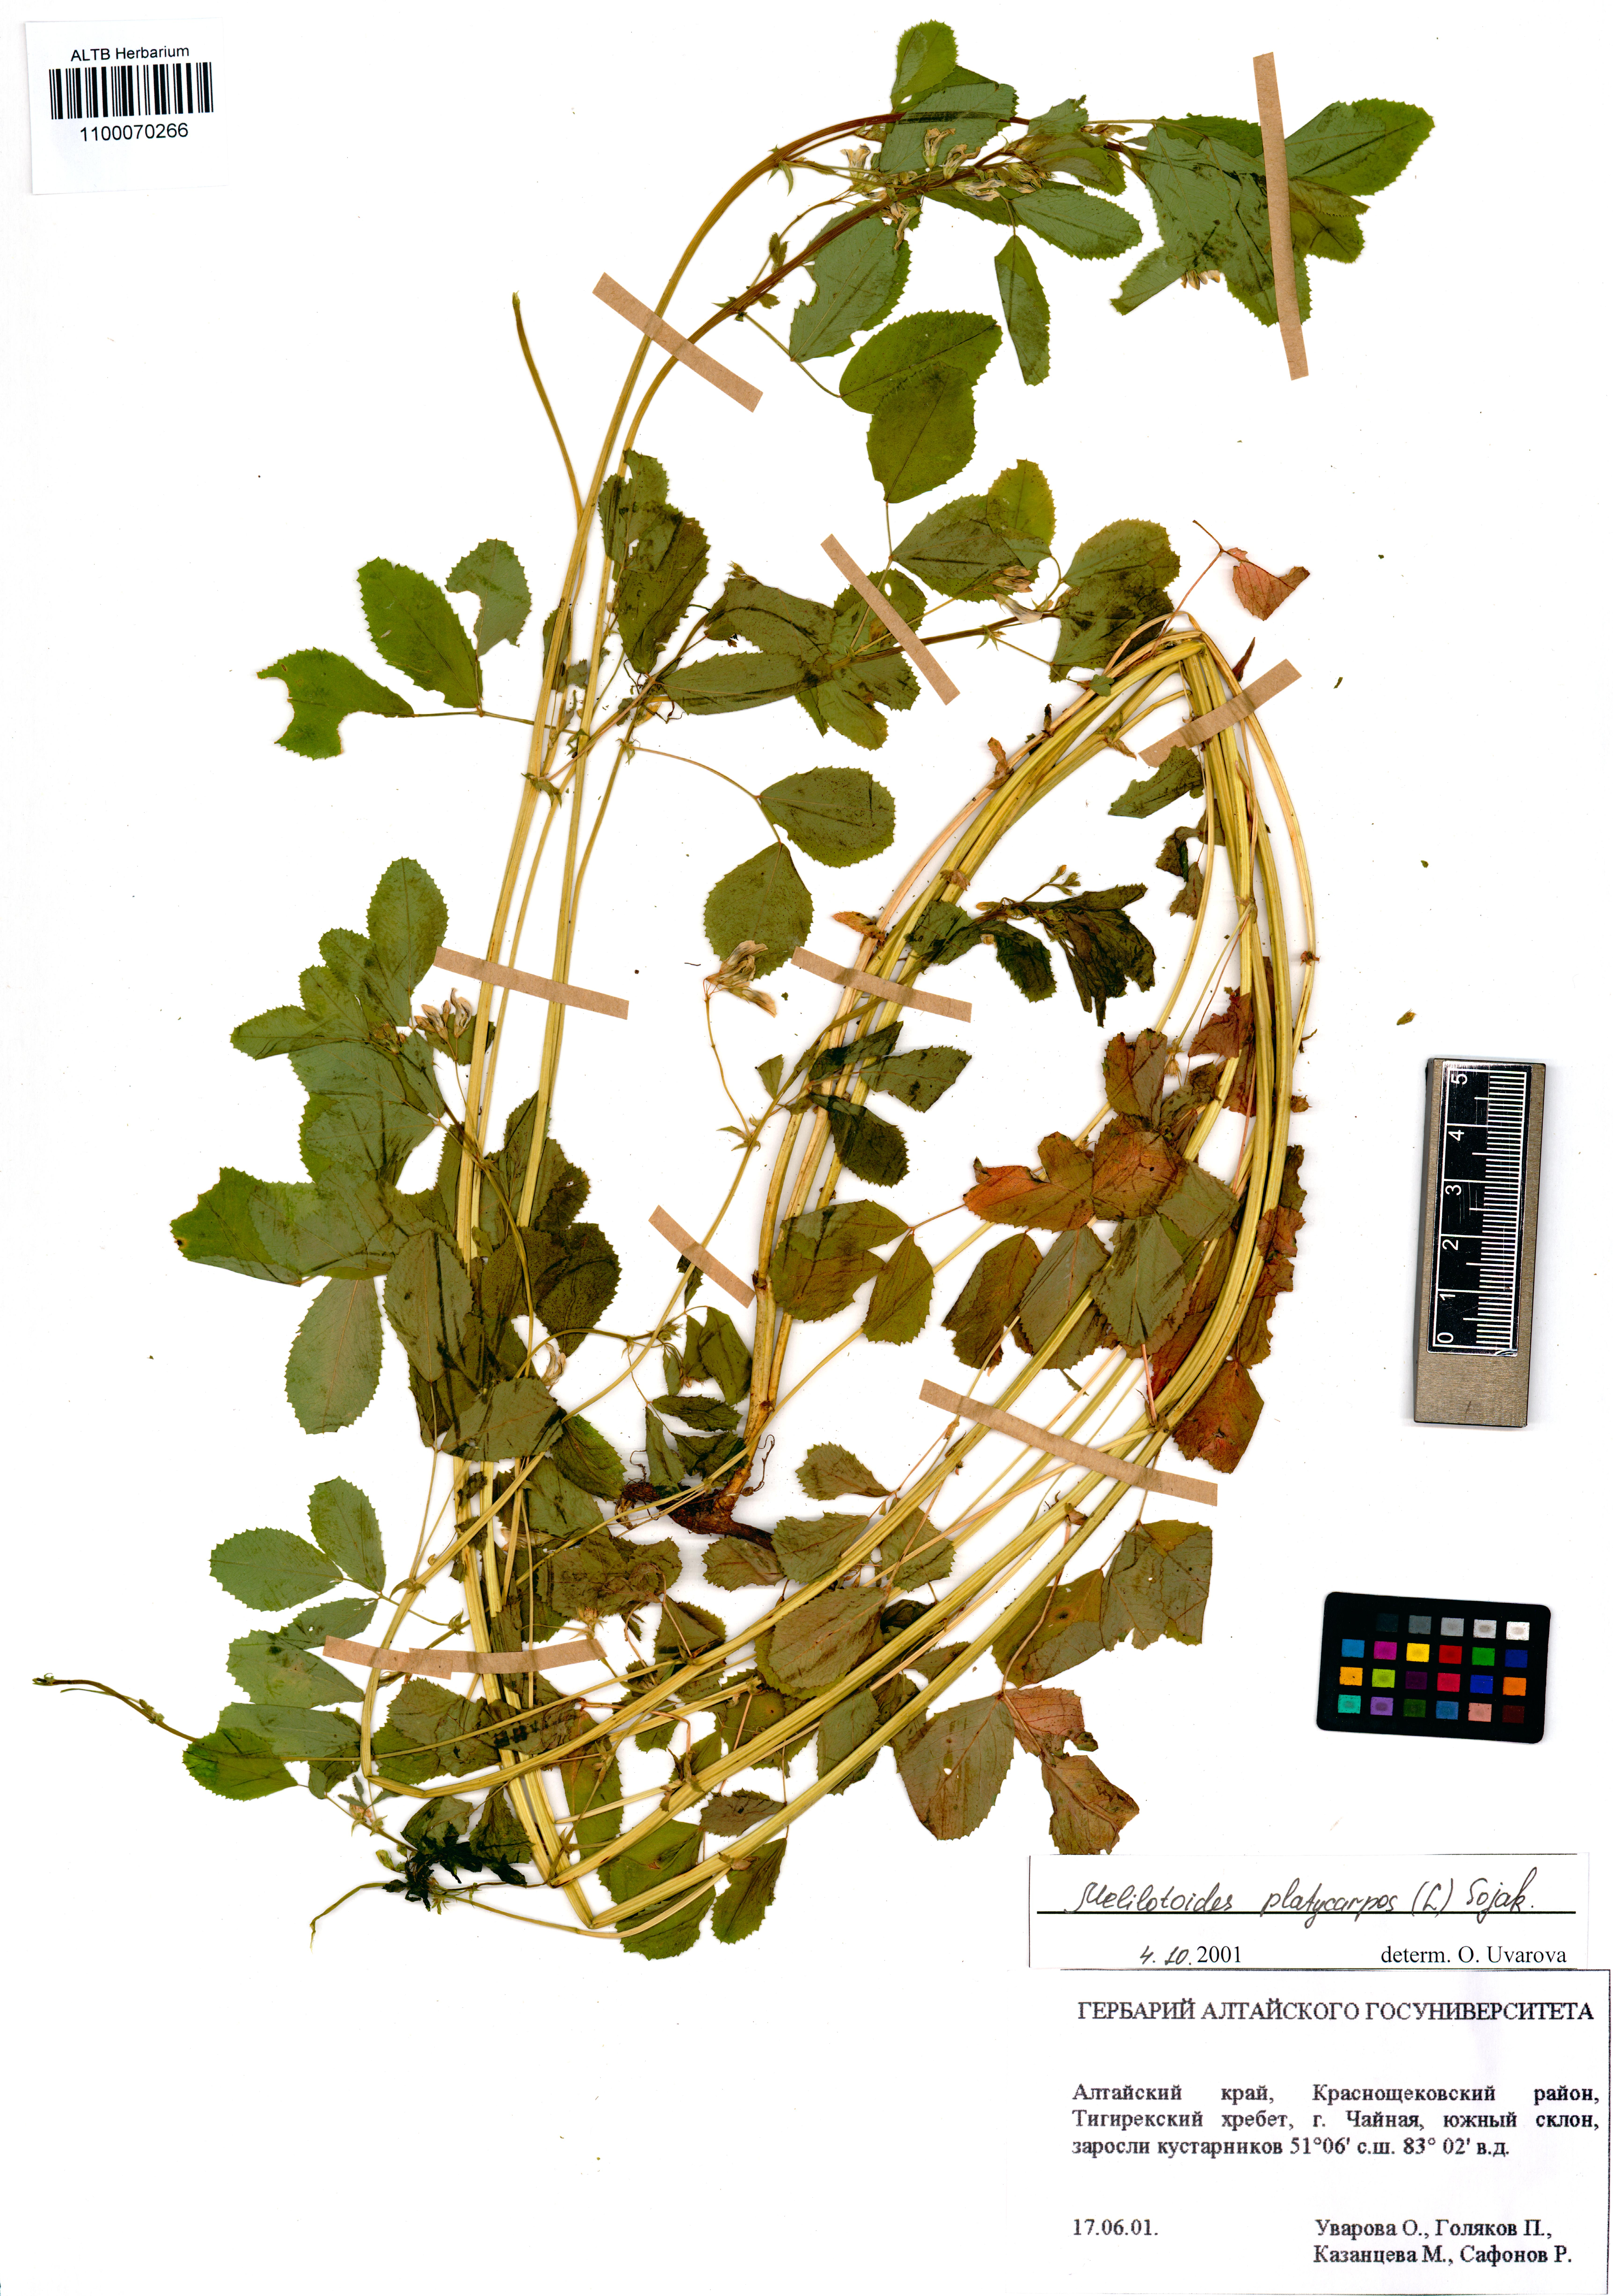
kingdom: Plantae
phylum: Tracheophyta
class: Magnoliopsida
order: Fabales
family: Fabaceae
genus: Medicago
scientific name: Medicago platycarpos
